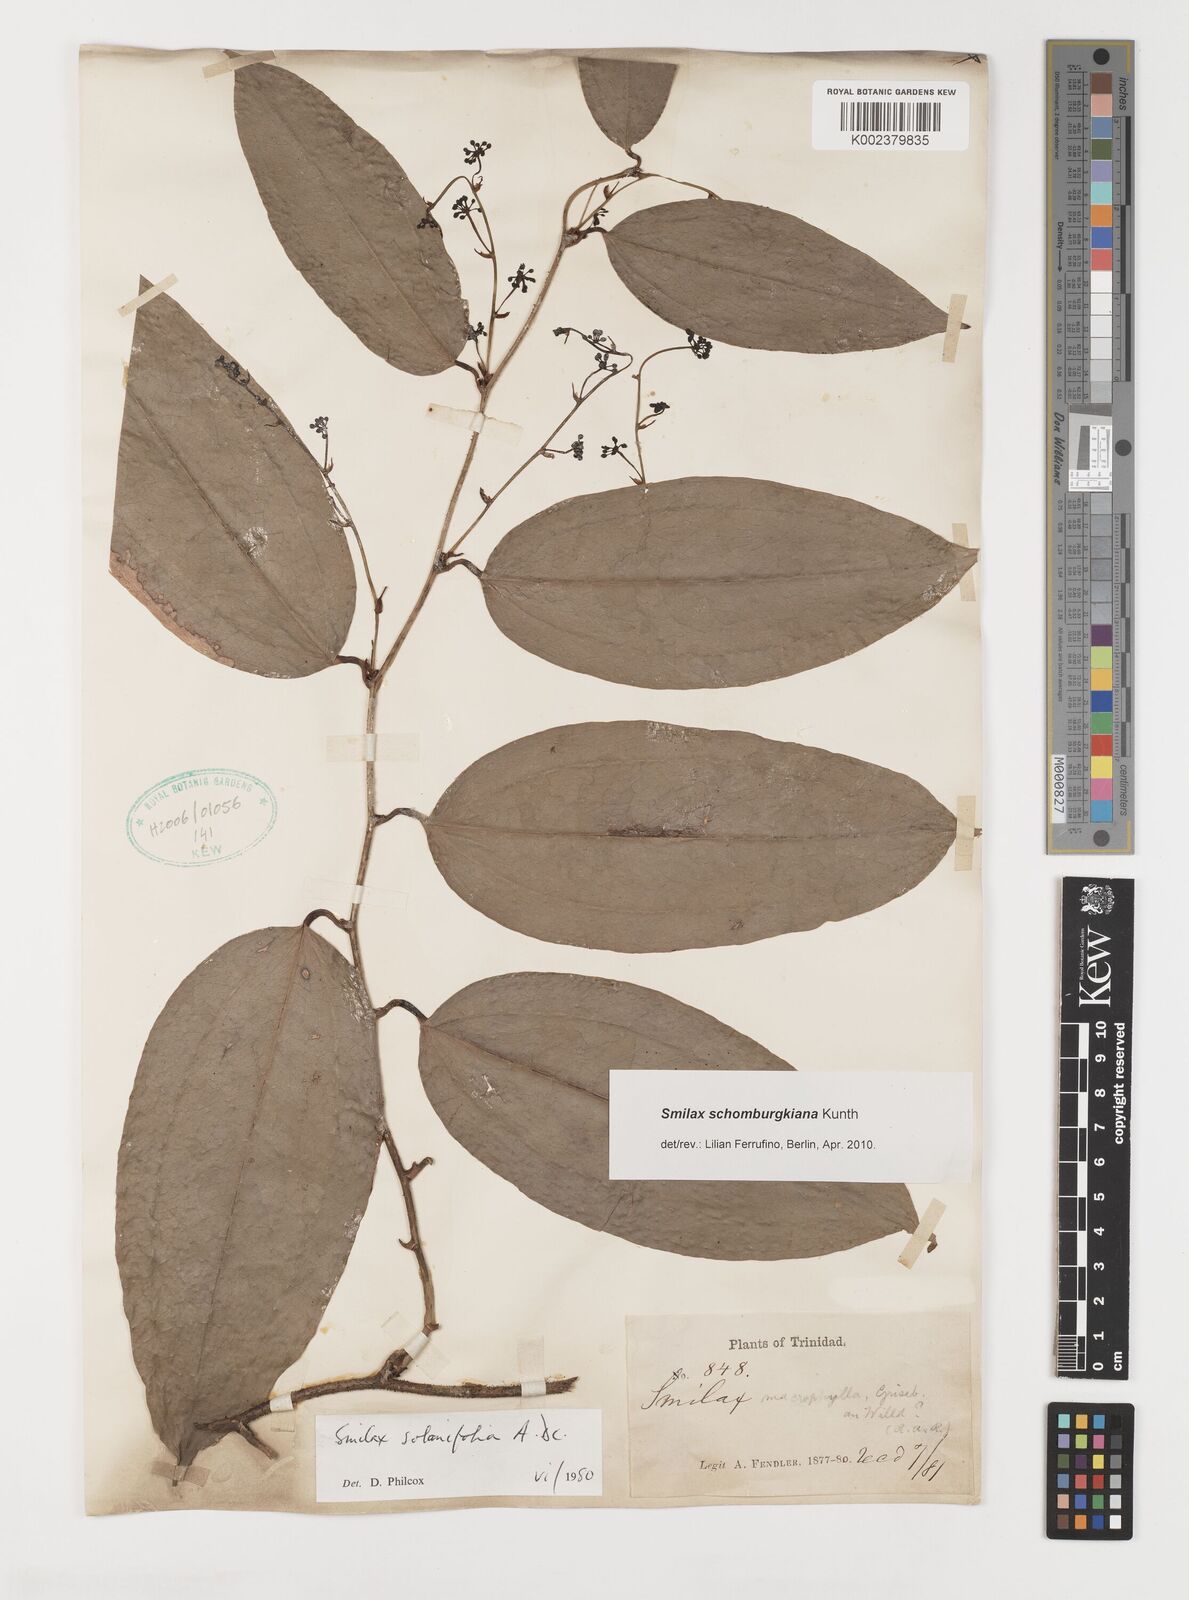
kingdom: Plantae
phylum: Tracheophyta
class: Liliopsida
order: Liliales
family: Smilacaceae
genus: Smilax
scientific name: Smilax schomburgkiana
